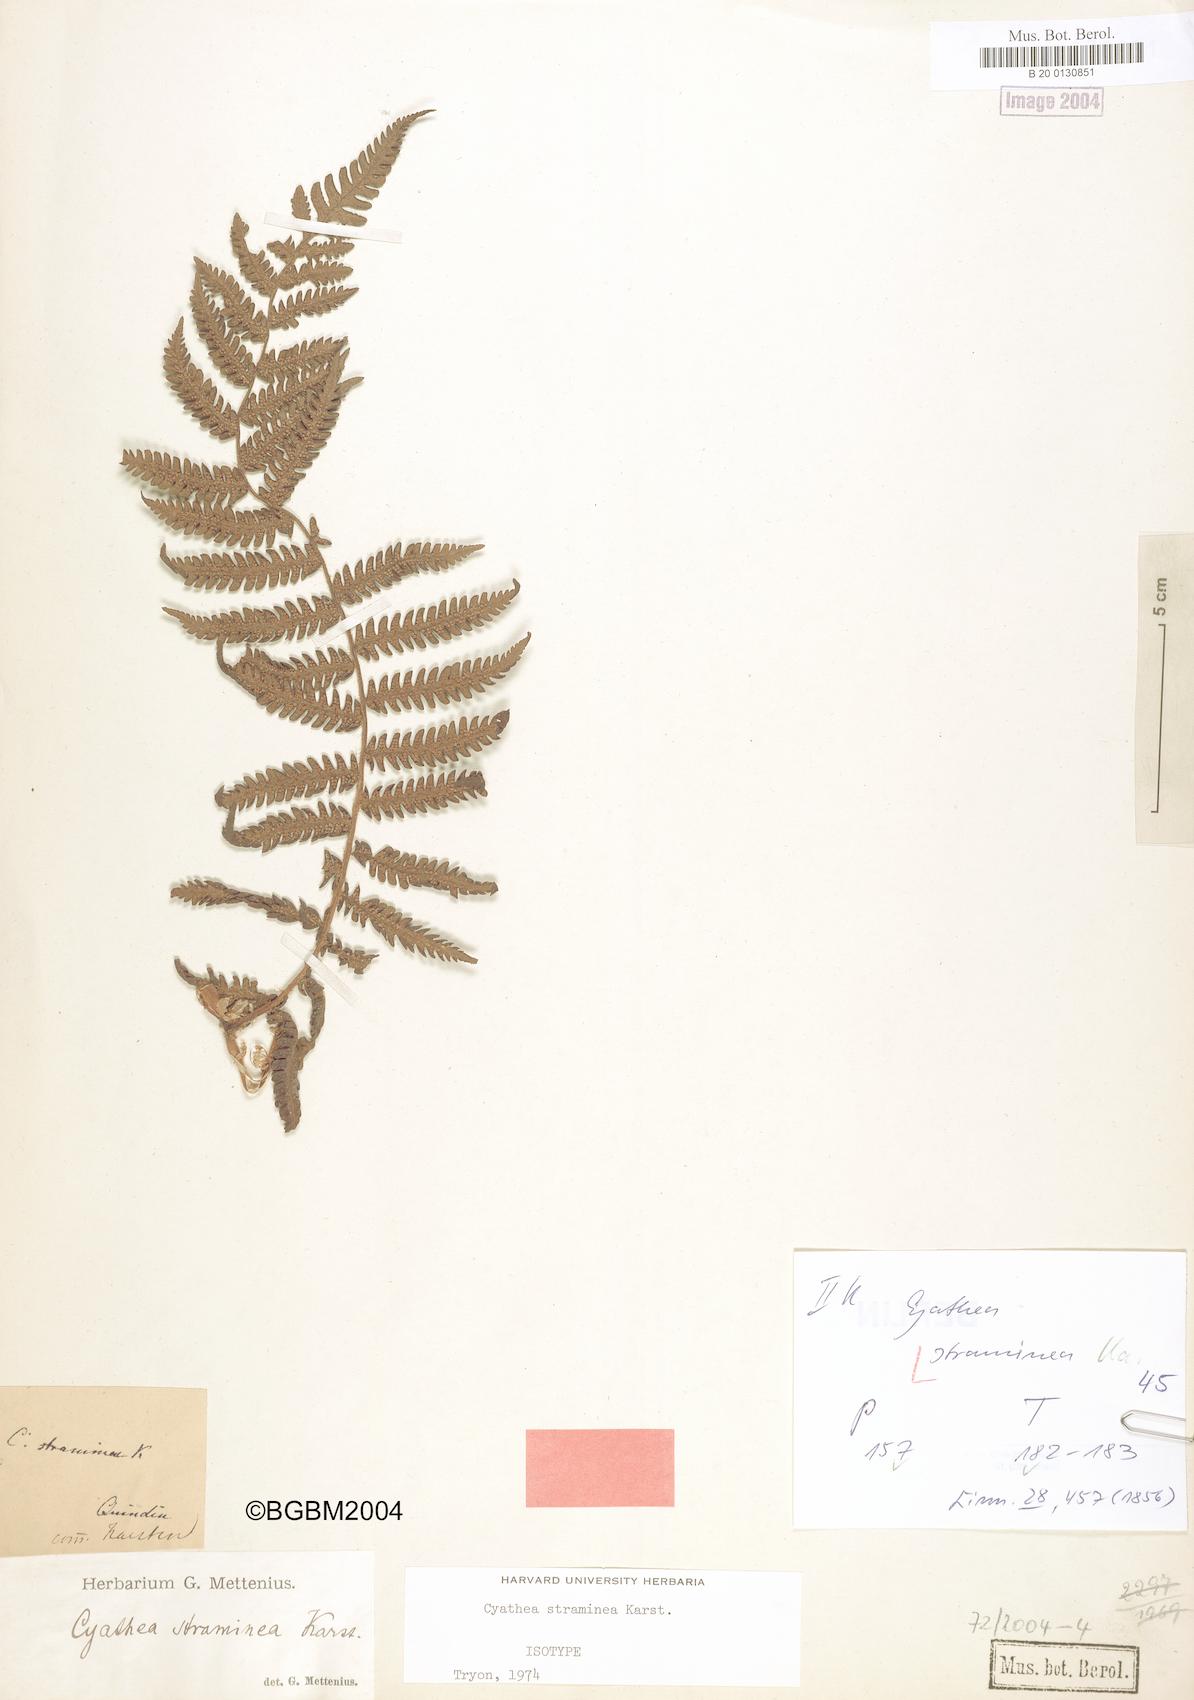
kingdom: Plantae
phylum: Tracheophyta
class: Polypodiopsida
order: Cyatheales
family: Cyatheaceae
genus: Cyathea
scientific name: Cyathea straminea
